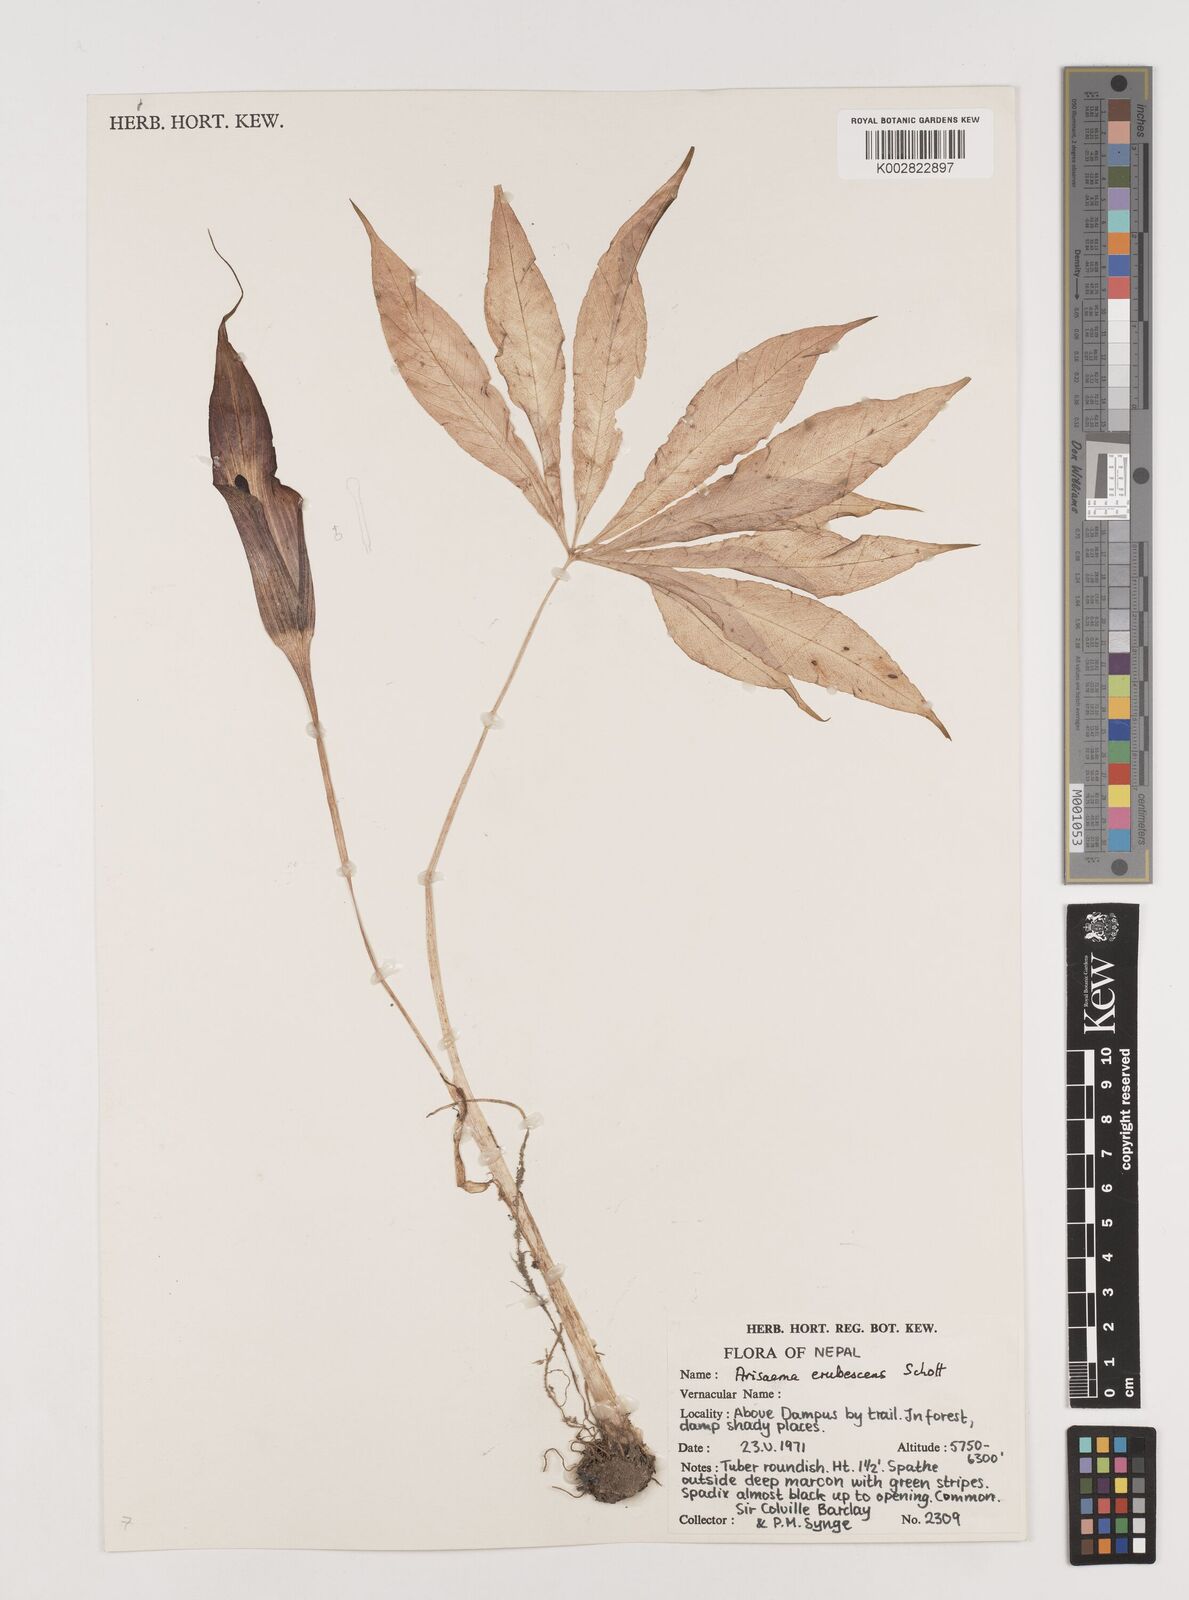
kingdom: Plantae
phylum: Tracheophyta
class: Liliopsida
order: Alismatales
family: Araceae
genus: Arisaema
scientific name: Arisaema erubescens
